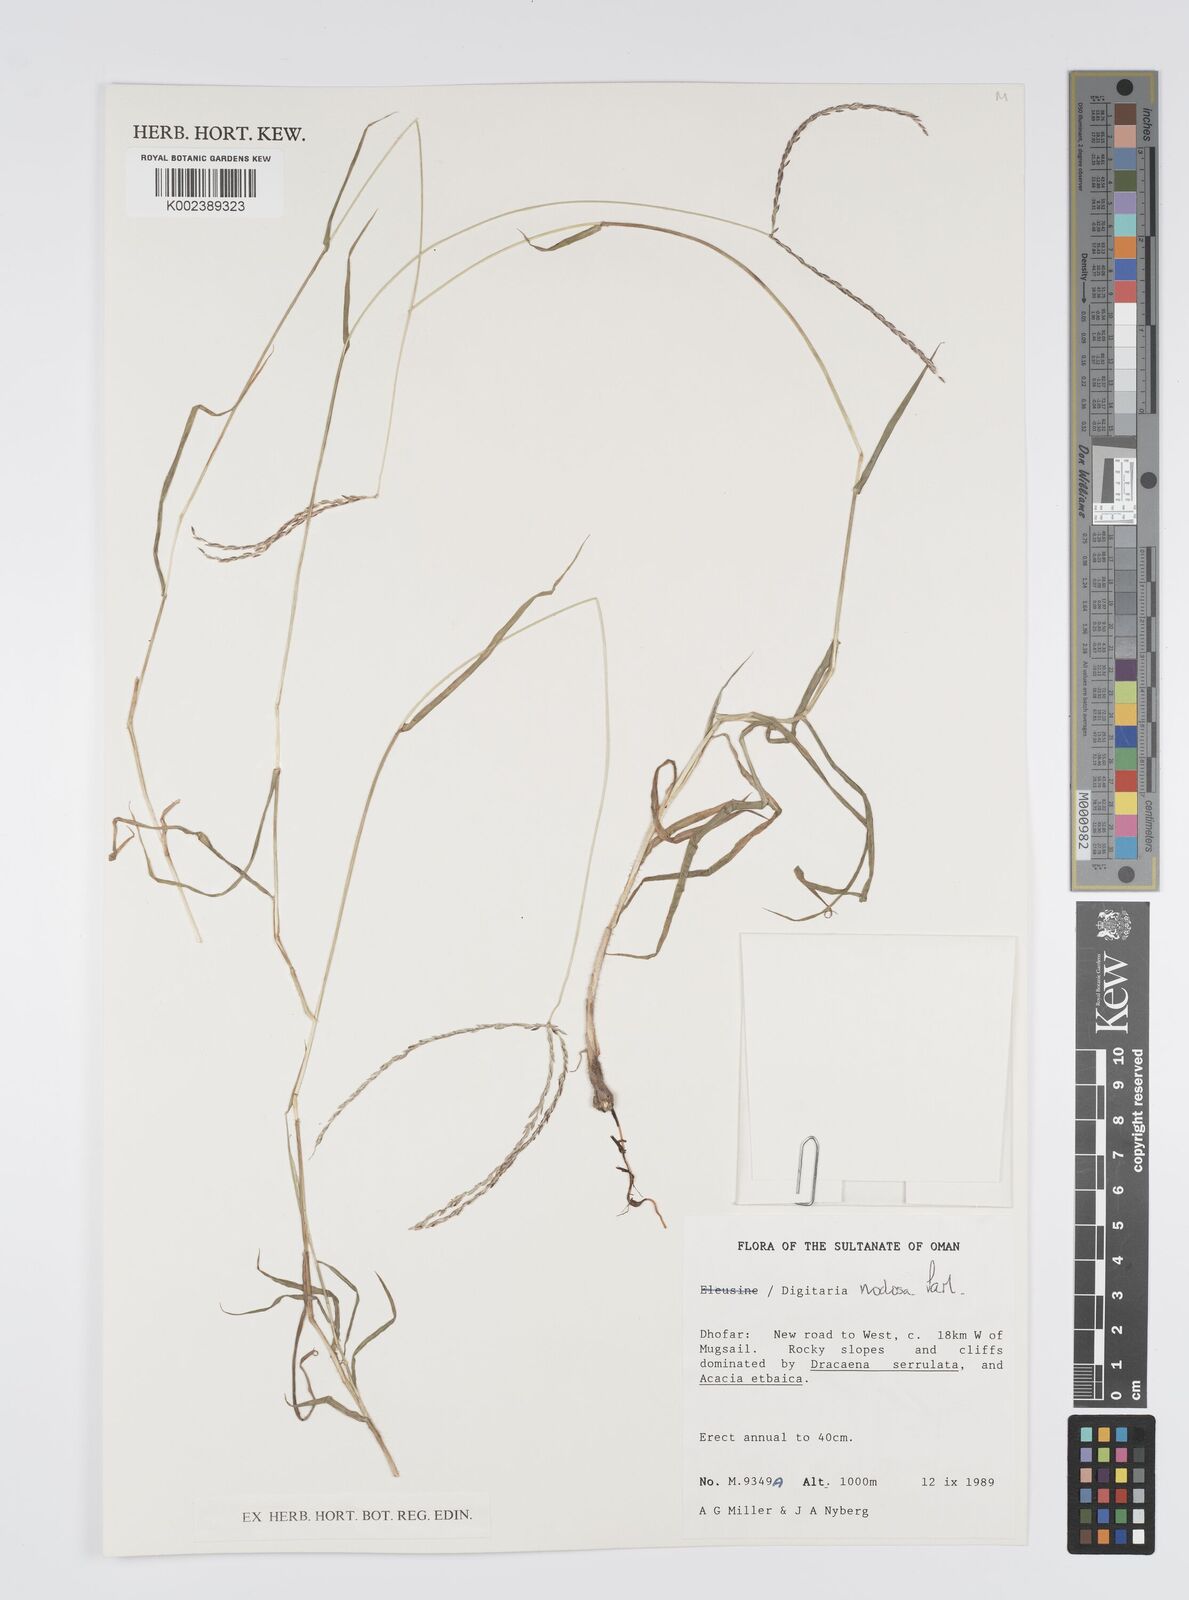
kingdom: Plantae
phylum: Tracheophyta
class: Liliopsida
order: Poales
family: Poaceae
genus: Digitaria
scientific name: Digitaria nodosa
